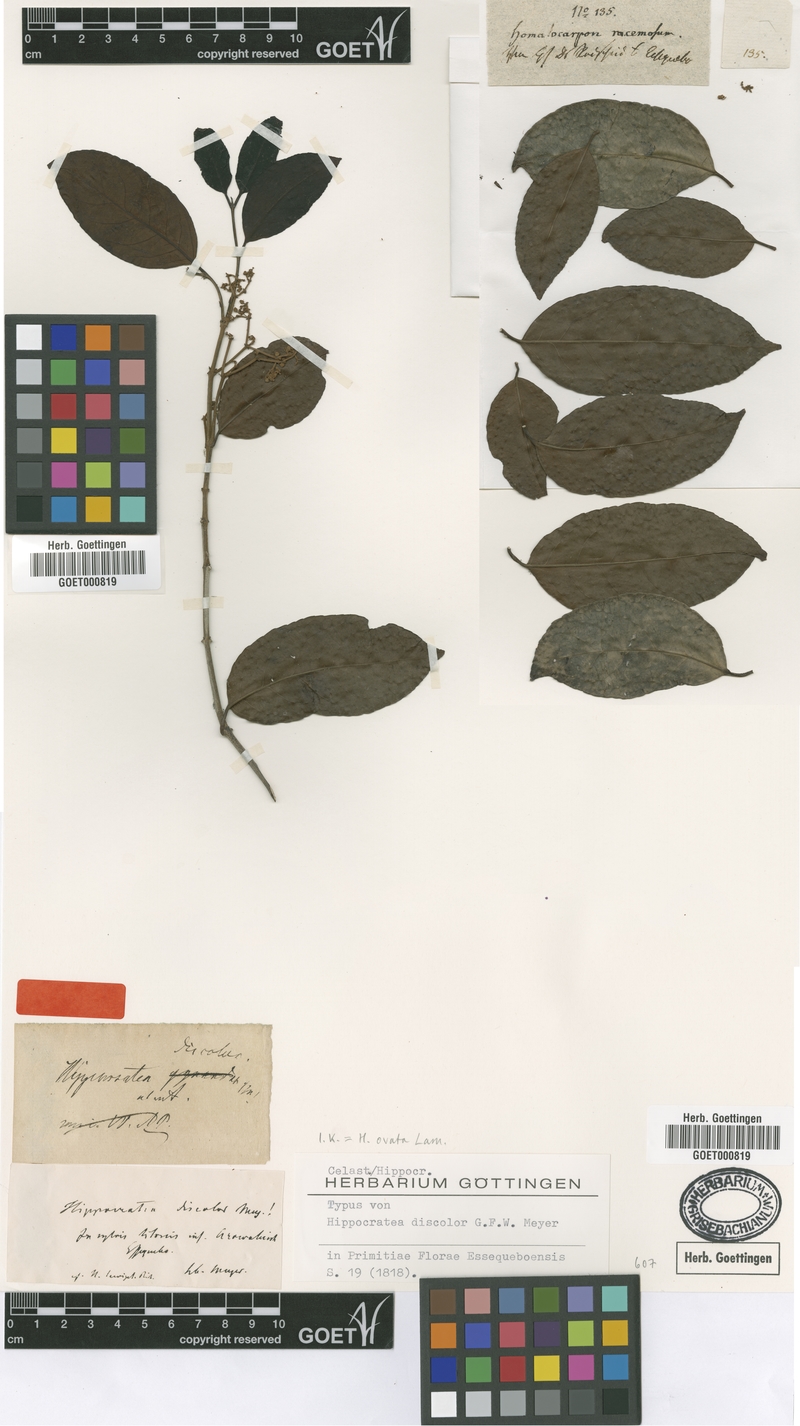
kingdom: Plantae
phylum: Tracheophyta
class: Magnoliopsida
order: Celastrales
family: Celastraceae
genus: Hippocratea
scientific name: Hippocratea volubilis
